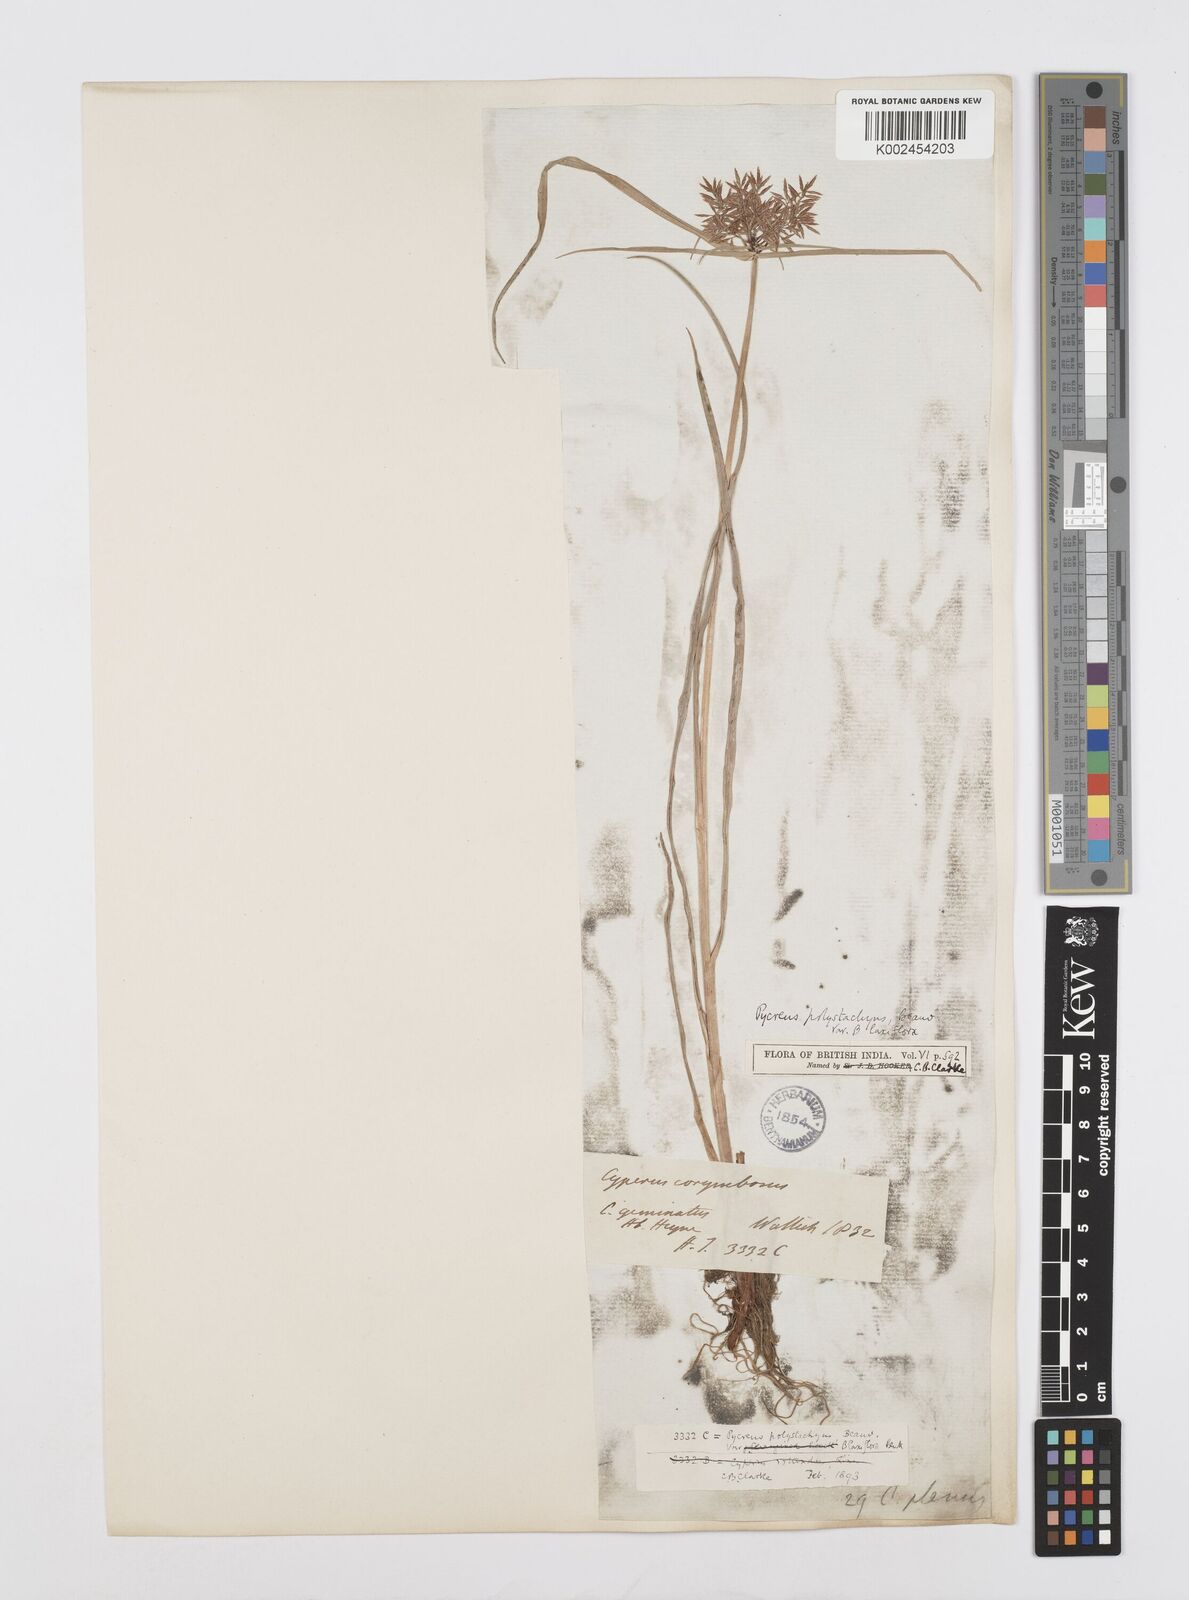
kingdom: Plantae
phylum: Tracheophyta
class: Liliopsida
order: Poales
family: Cyperaceae
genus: Cyperus
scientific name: Cyperus polystachyos
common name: Bunchy flat sedge
